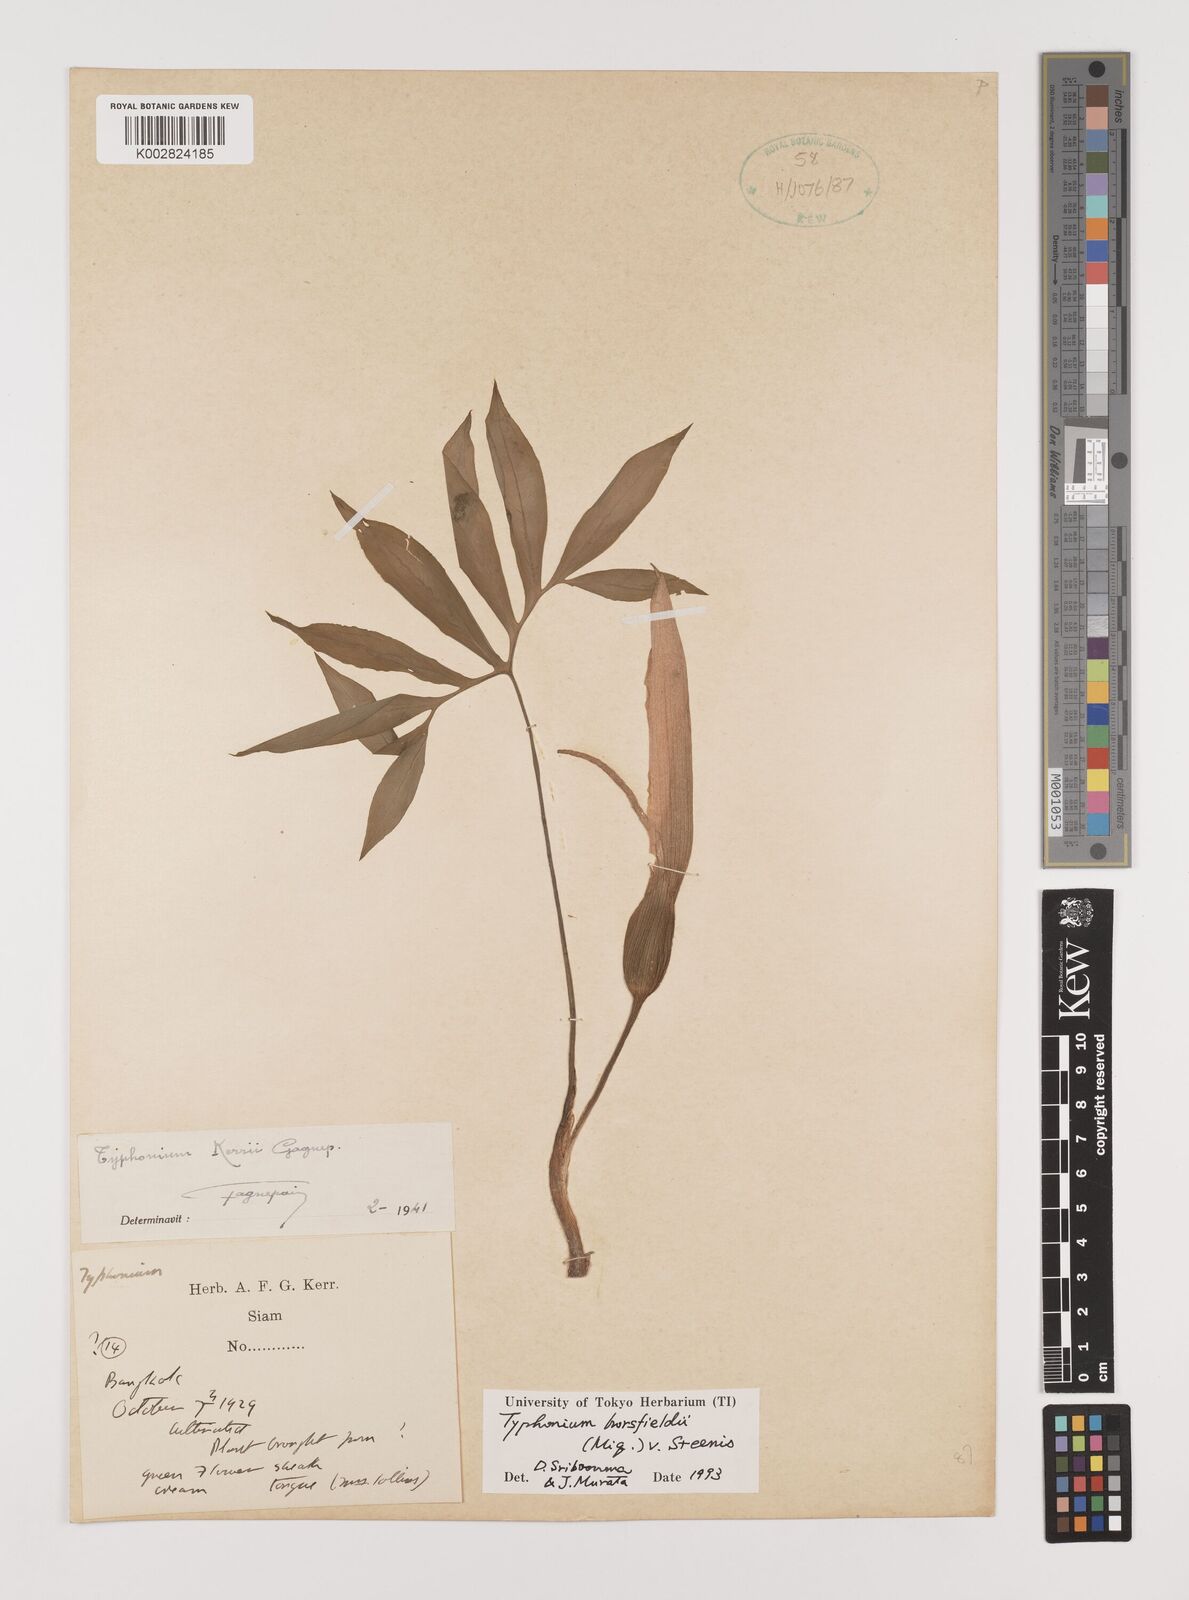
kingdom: Plantae
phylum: Tracheophyta
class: Liliopsida
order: Alismatales
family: Araceae
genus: Sauromatum
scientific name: Sauromatum horsfieldii
